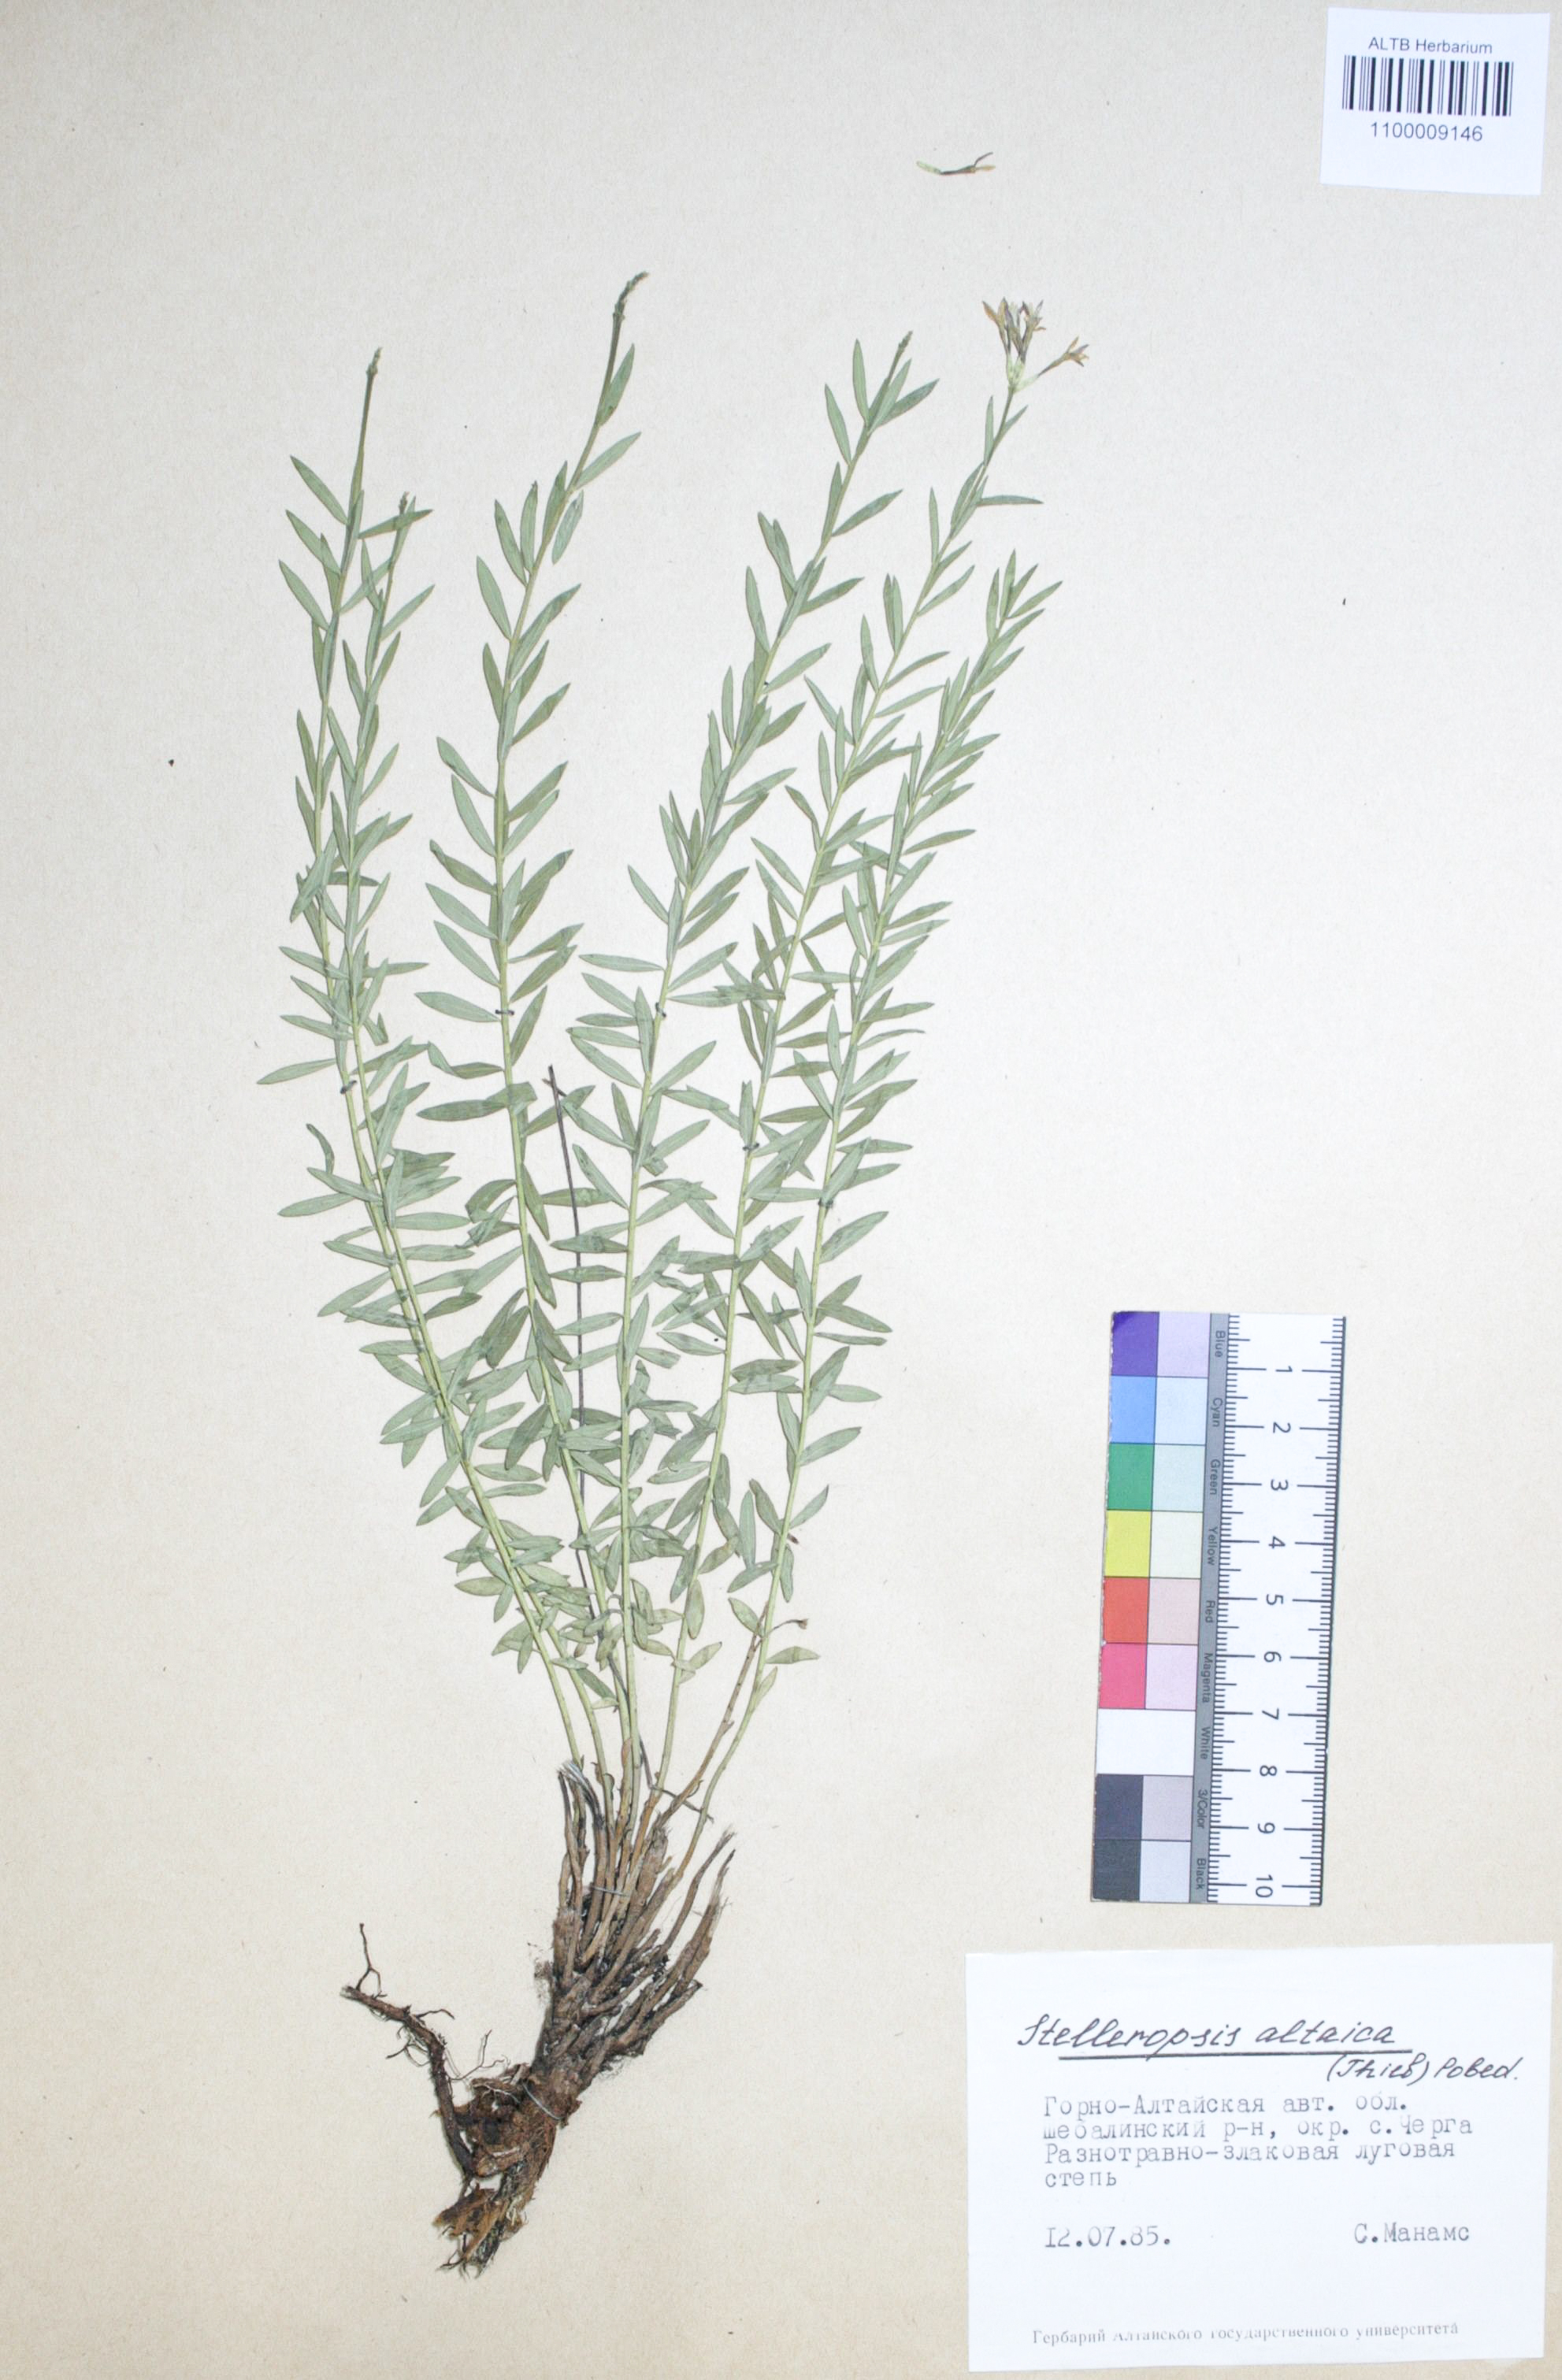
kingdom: Plantae
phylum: Tracheophyta
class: Magnoliopsida
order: Malvales
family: Thymelaeaceae
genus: Diarthron
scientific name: Diarthron altaicum
